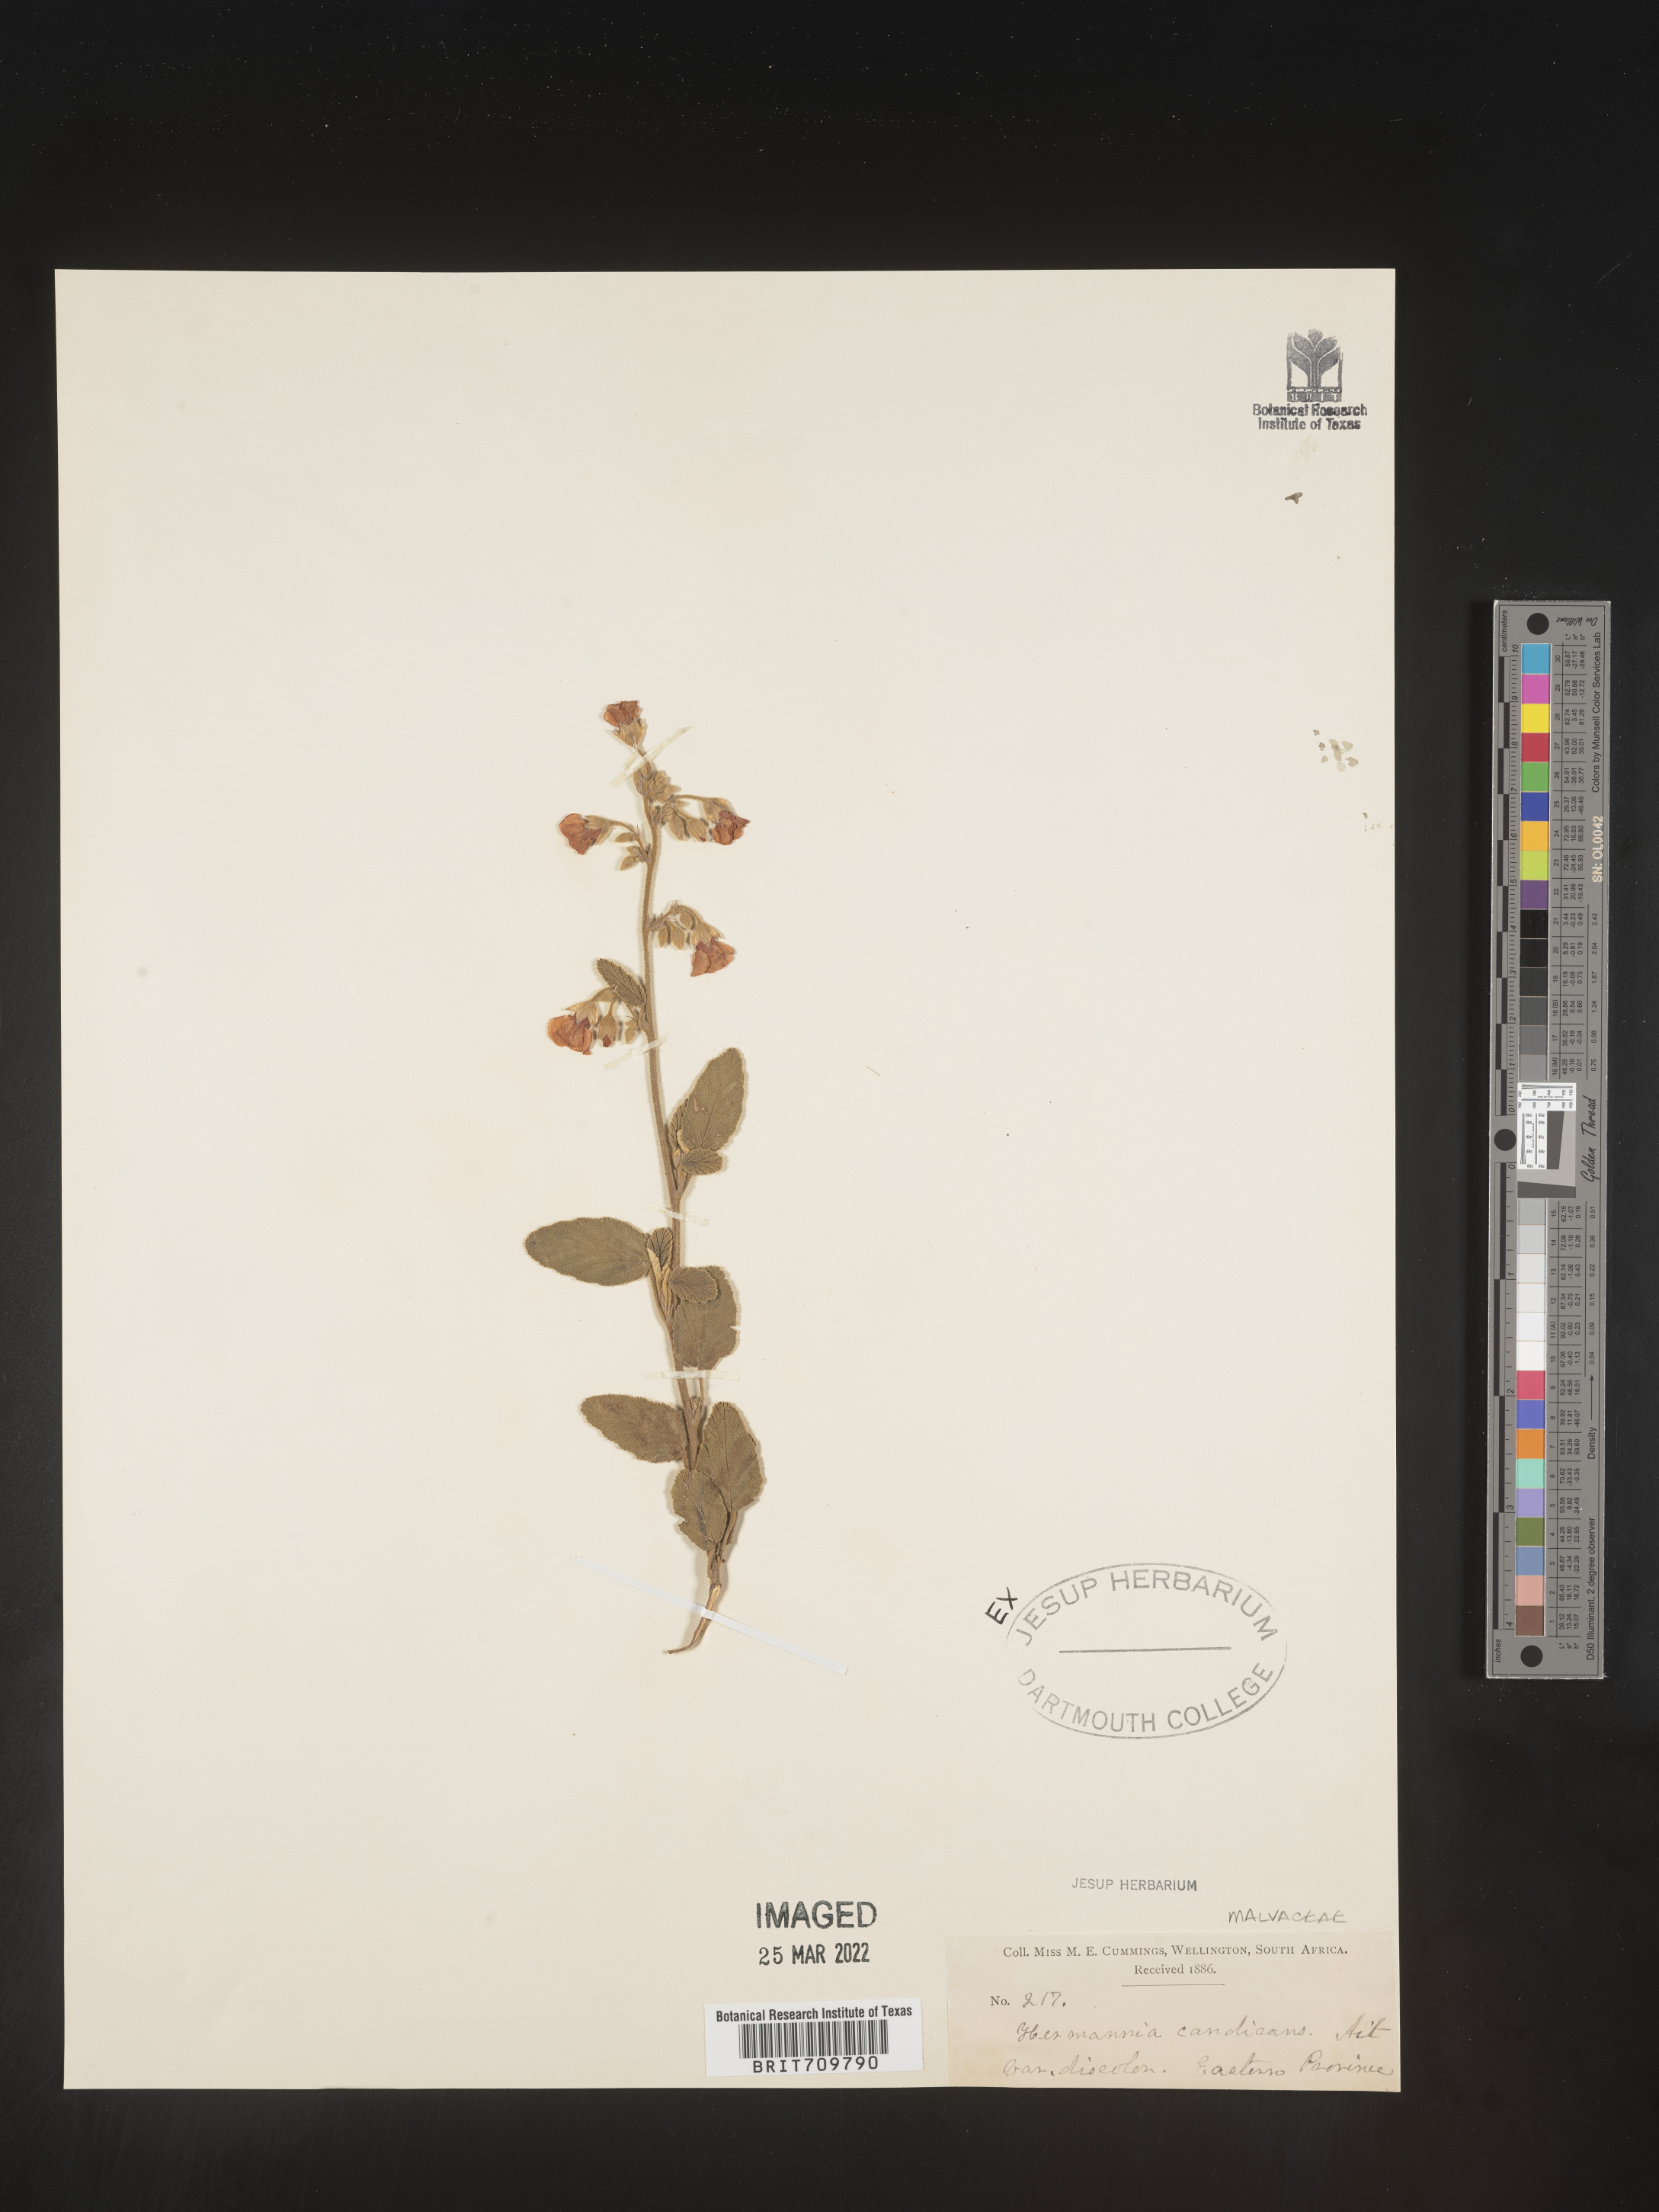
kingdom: Plantae
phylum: Tracheophyta
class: Magnoliopsida
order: Malvales
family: Malvaceae
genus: Hermannia
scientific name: Hermannia
